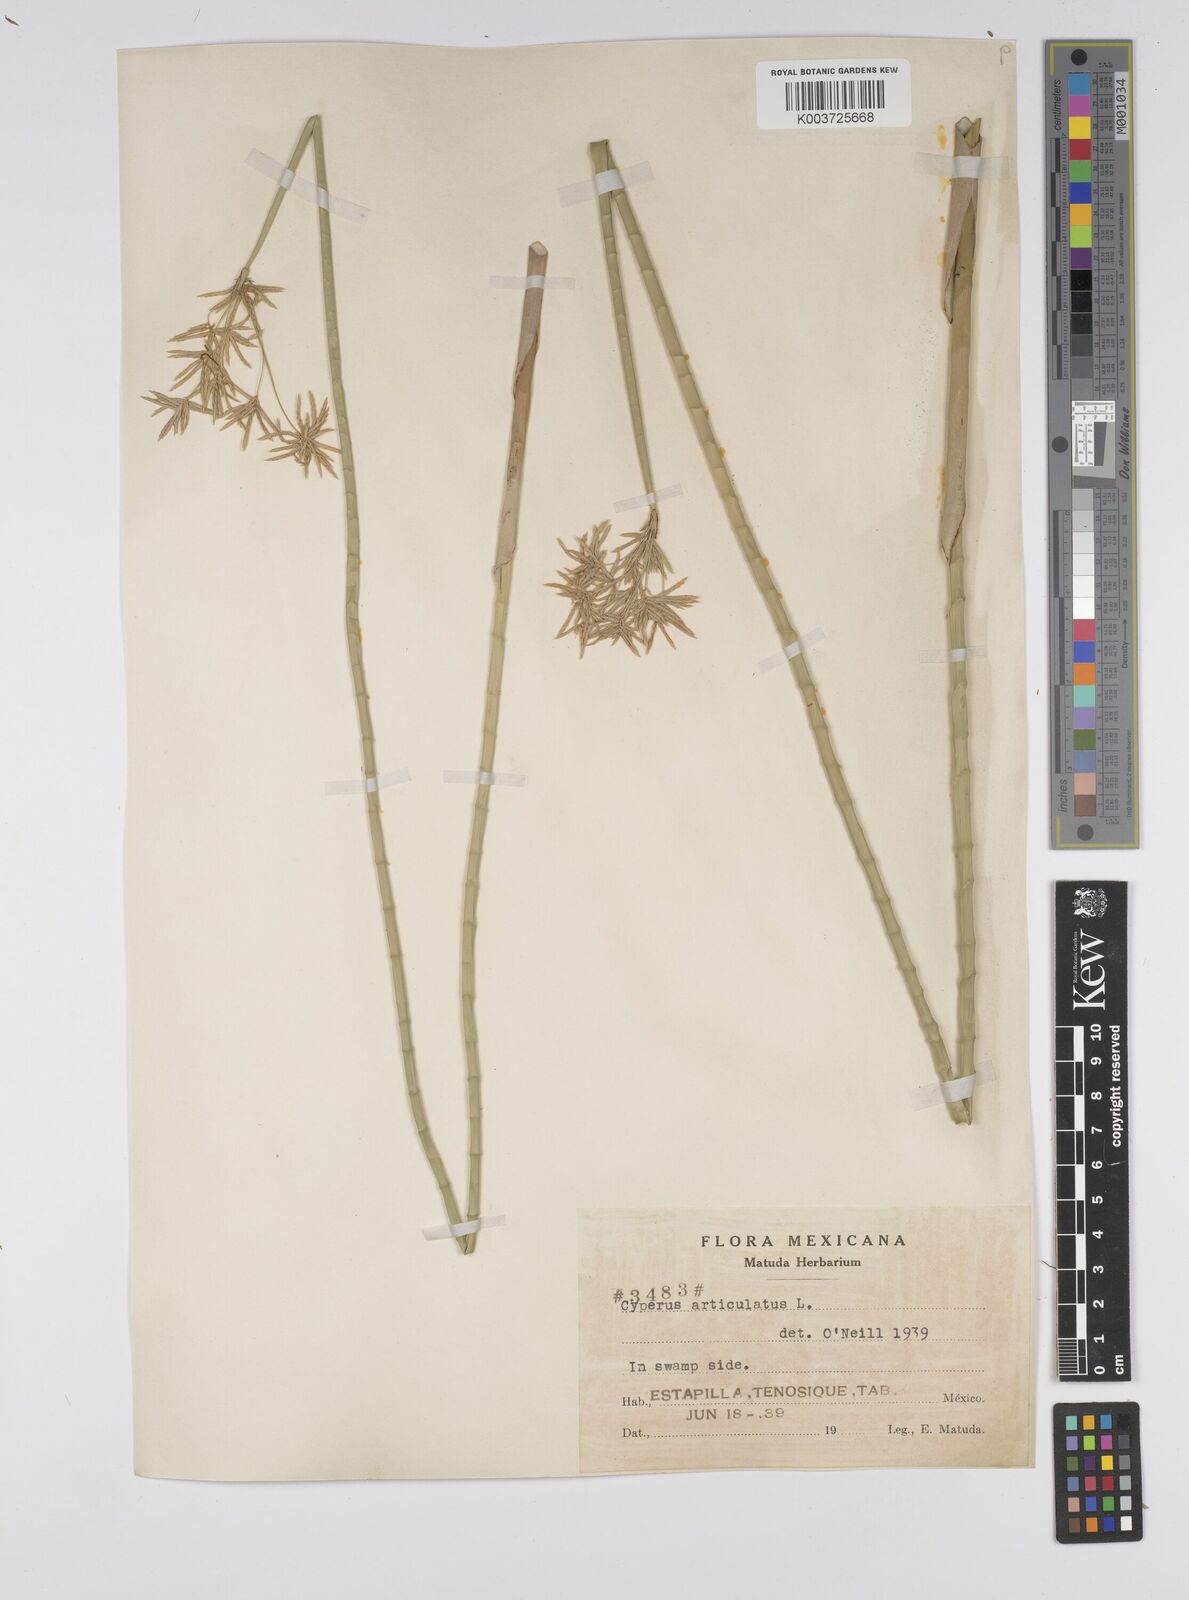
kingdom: Plantae
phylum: Tracheophyta
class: Liliopsida
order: Poales
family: Cyperaceae
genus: Cyperus
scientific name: Cyperus articulatus
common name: Jointed flatsedge
